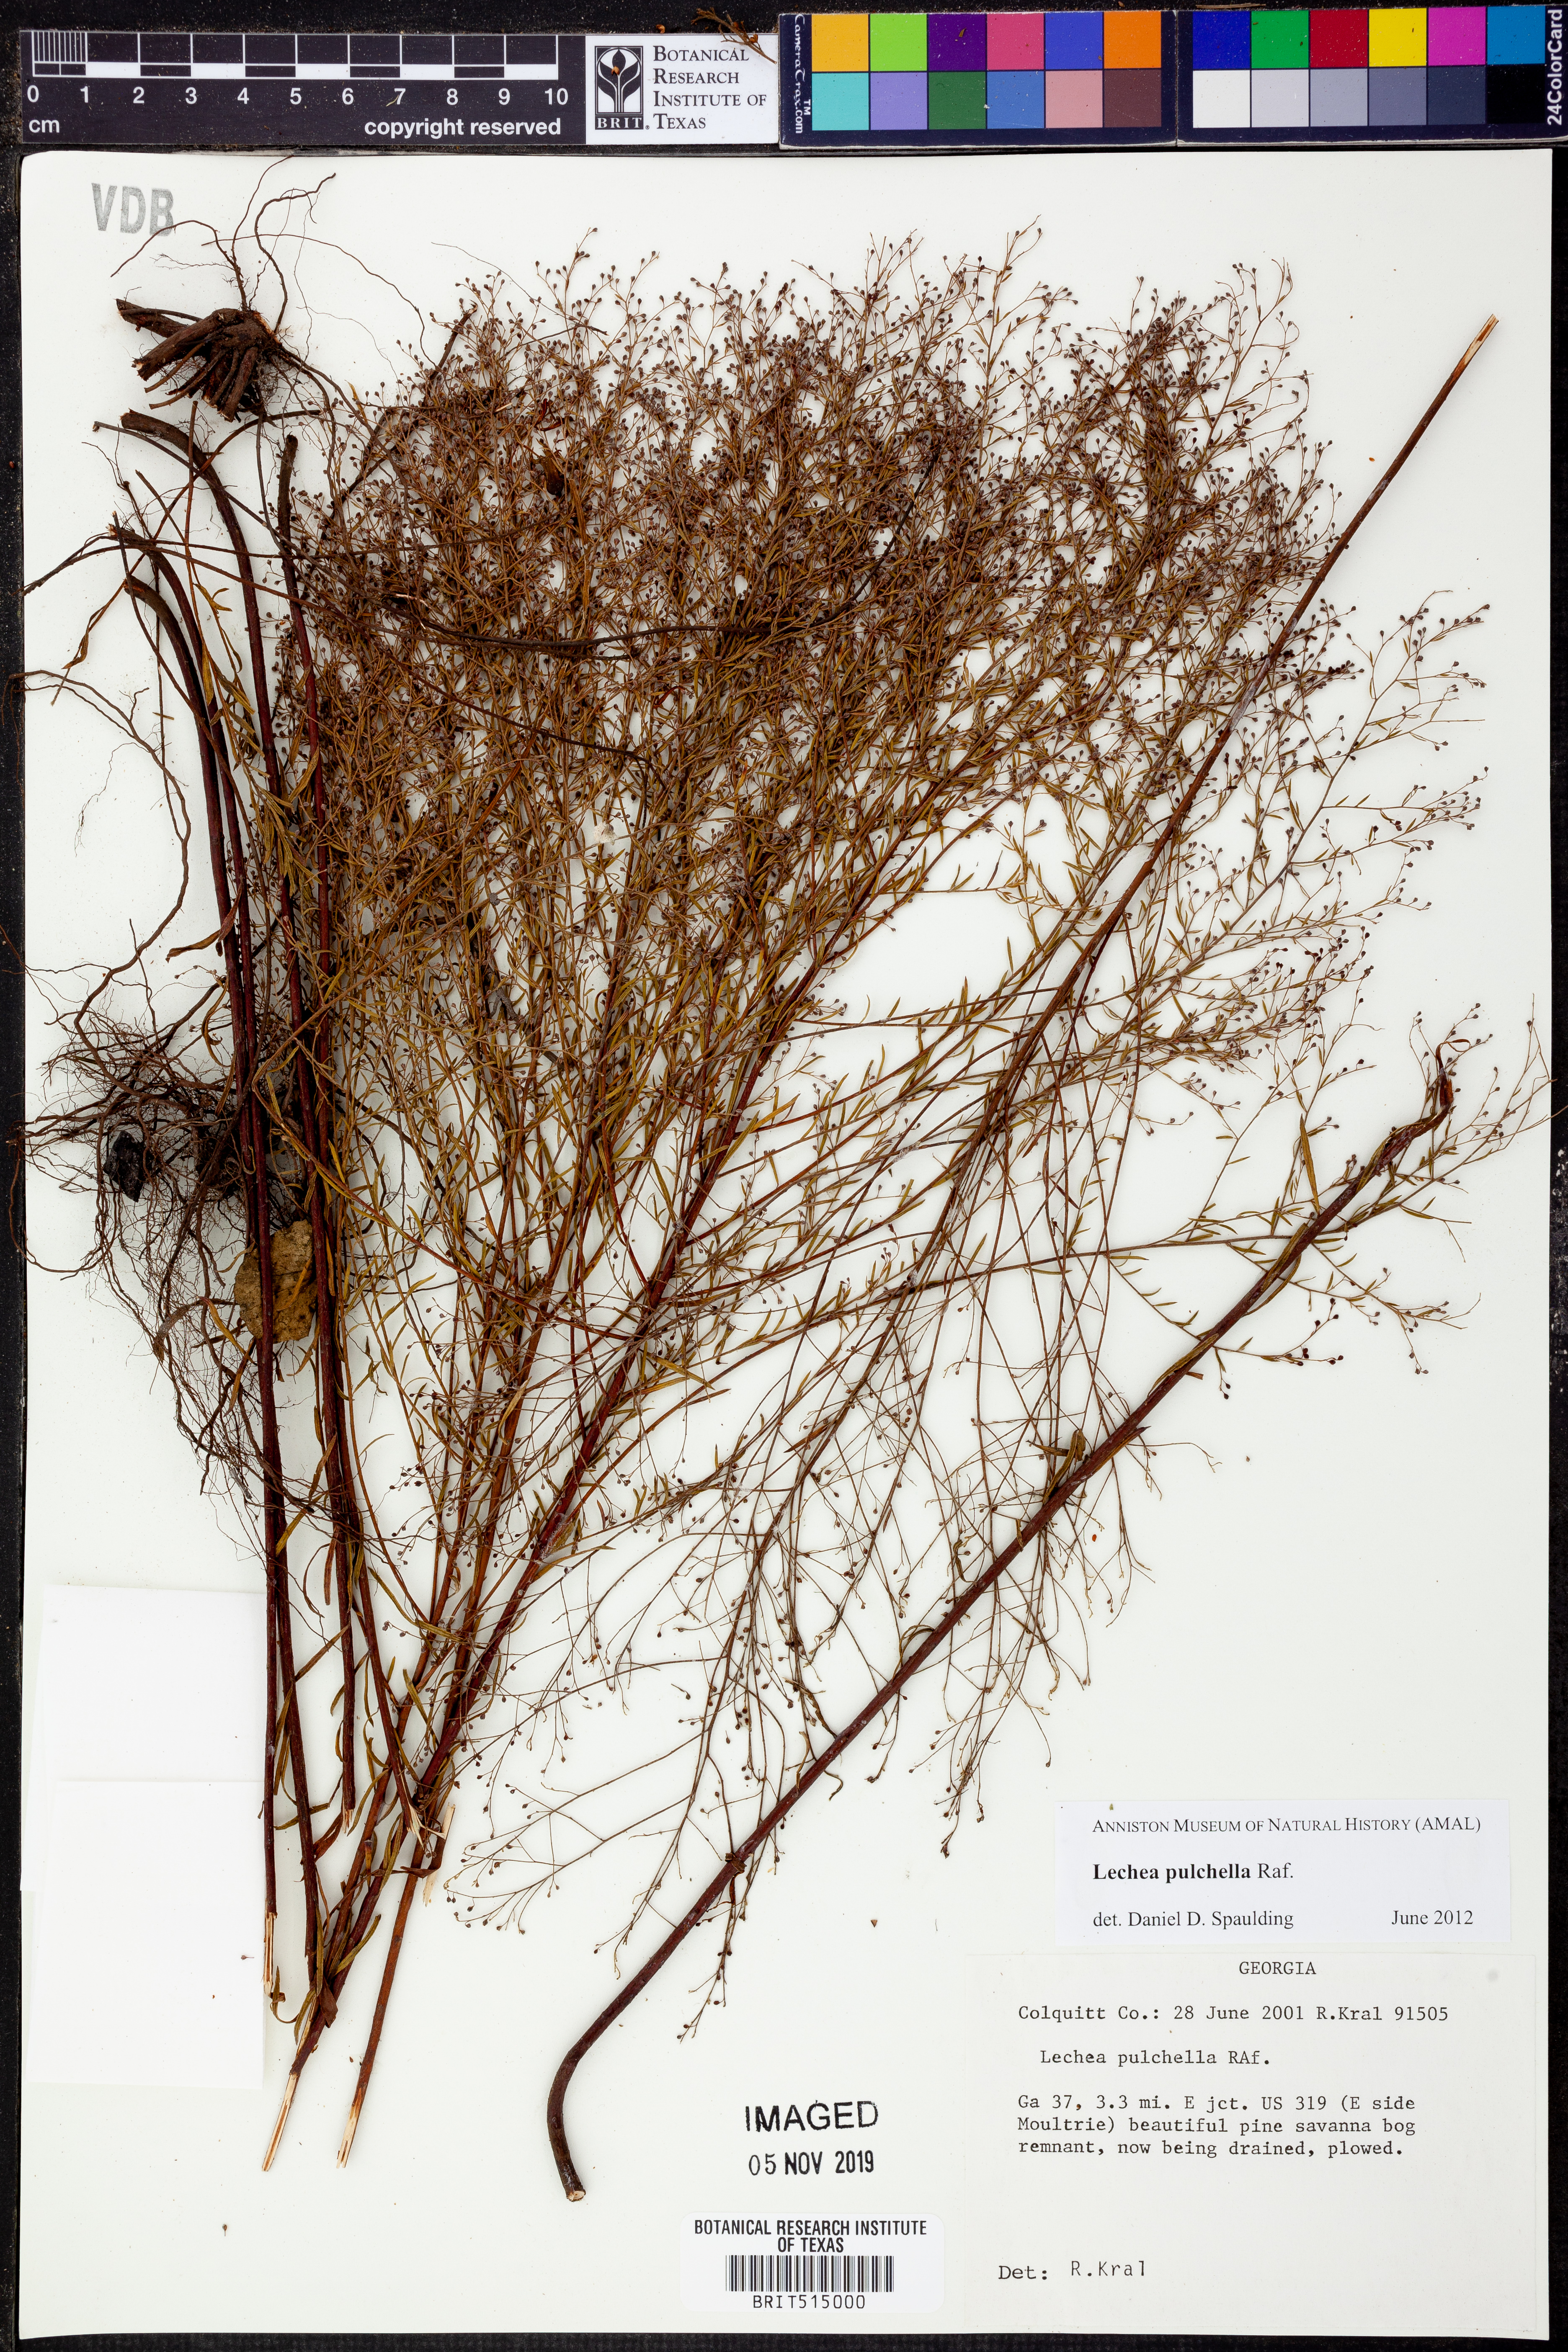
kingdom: Plantae
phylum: Tracheophyta
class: Magnoliopsida
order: Malvales
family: Cistaceae
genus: Lechea
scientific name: Lechea pulchella
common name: Leggett's pinweed
